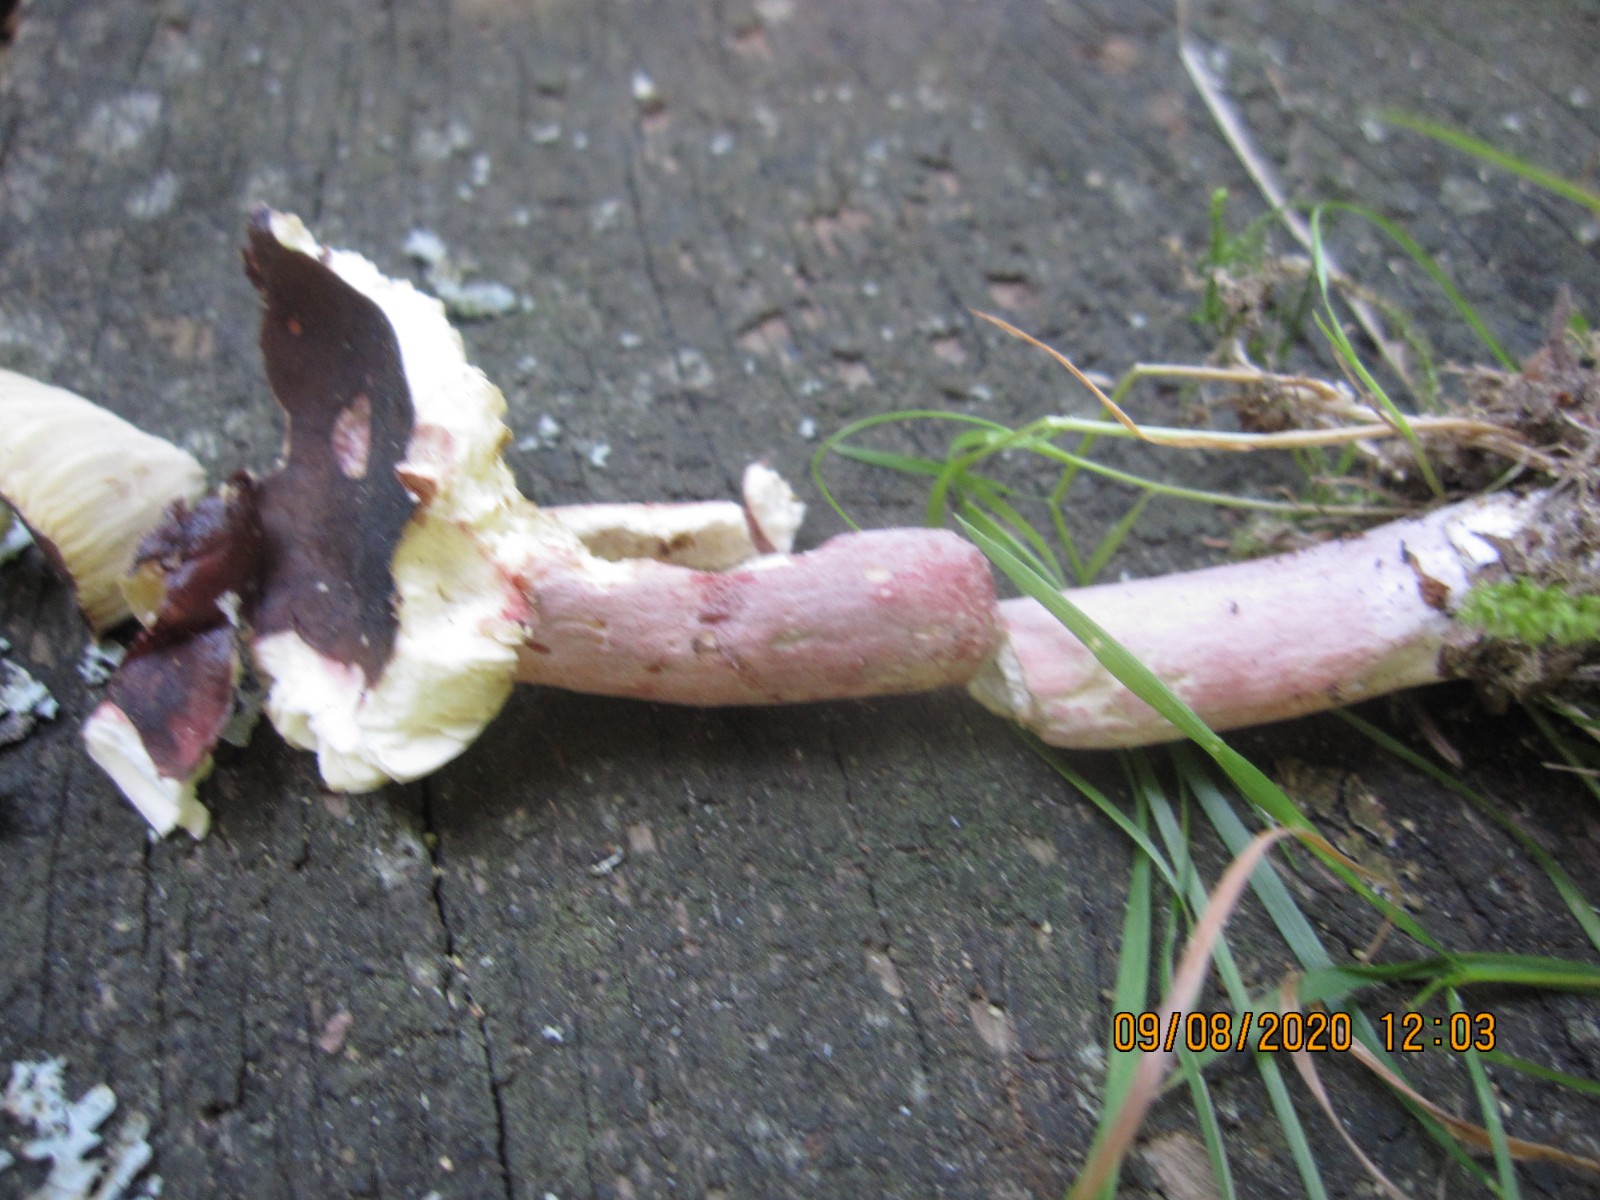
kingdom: Fungi
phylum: Basidiomycota
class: Agaricomycetes
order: Russulales
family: Russulaceae
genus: Russula
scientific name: Russula queletii
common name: Quélets skørhat
